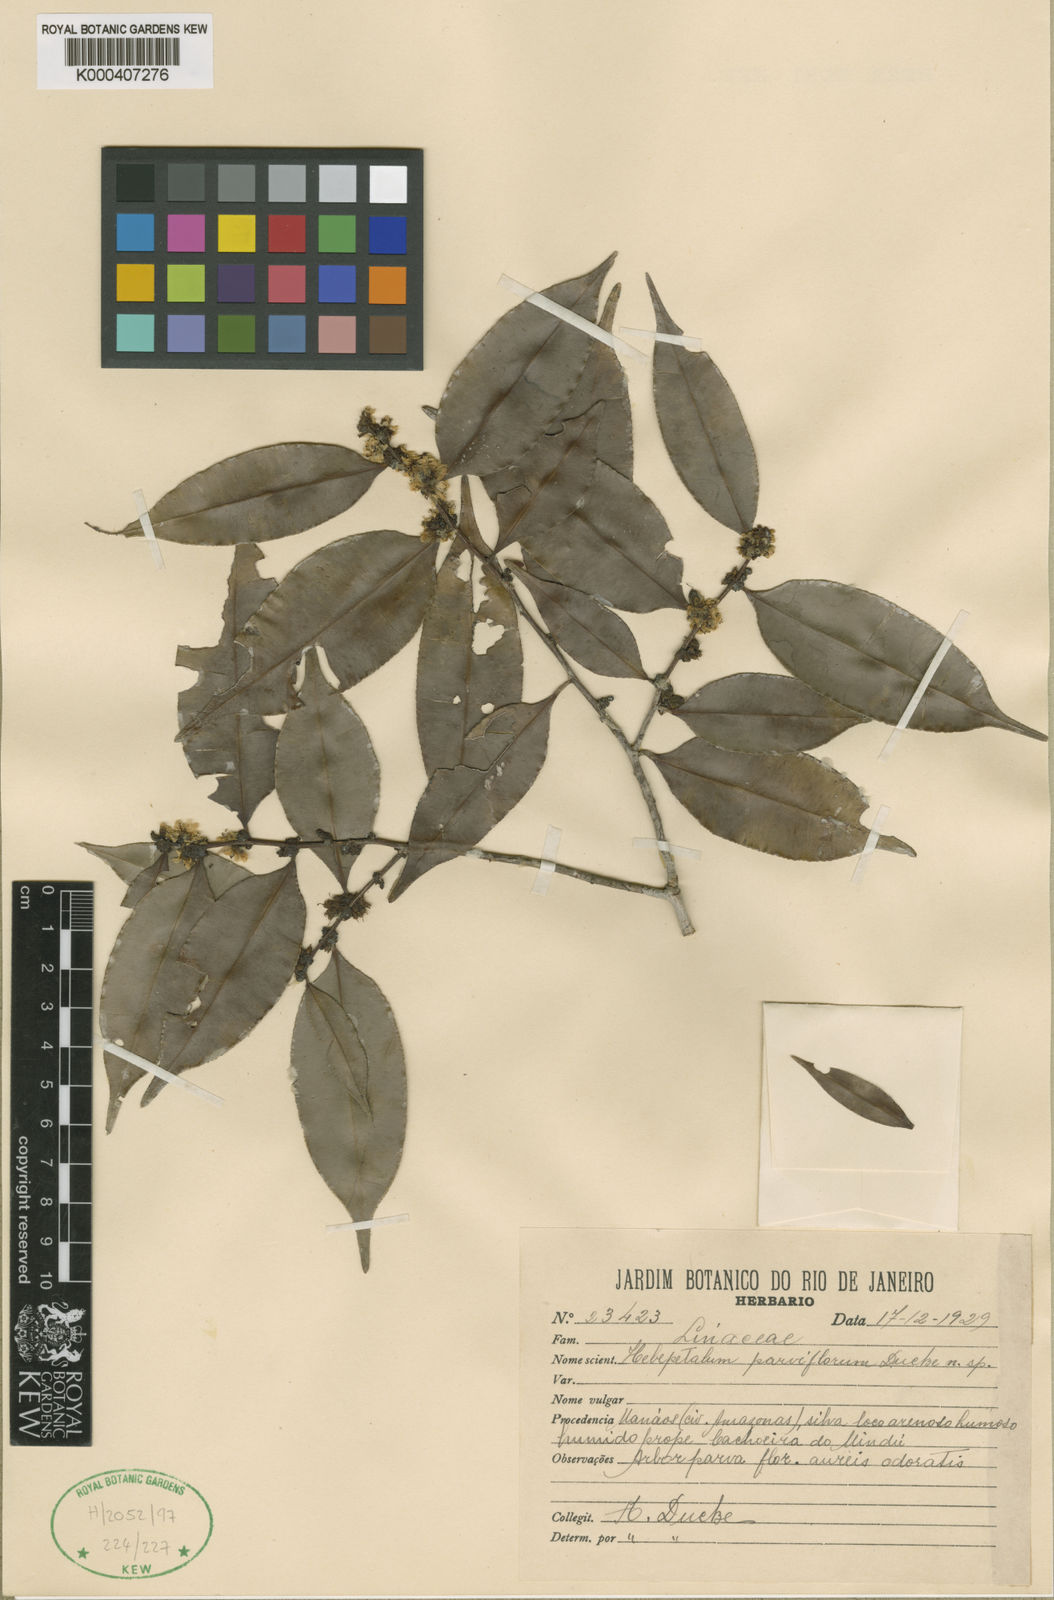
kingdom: Plantae
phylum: Tracheophyta
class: Magnoliopsida
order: Malpighiales
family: Linaceae
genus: Roucheria
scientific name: Roucheria calophylla
